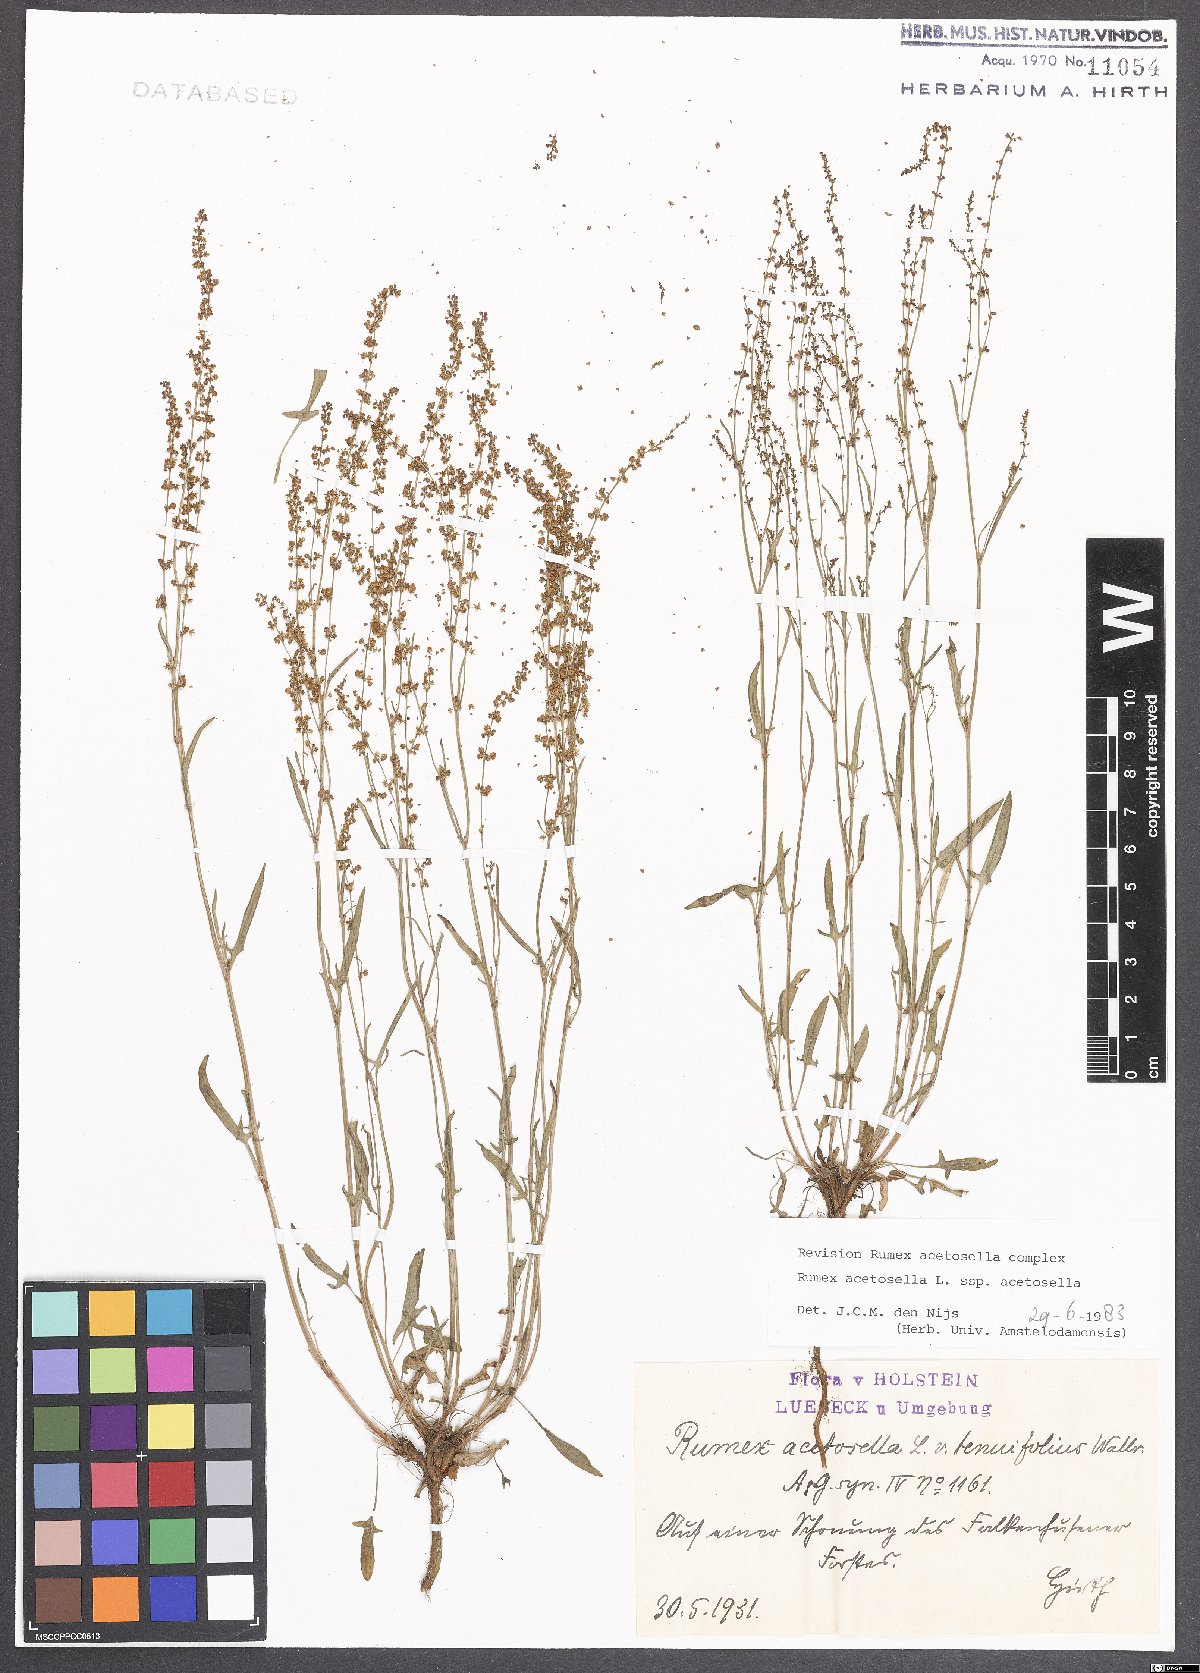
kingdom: Plantae
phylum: Tracheophyta
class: Magnoliopsida
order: Caryophyllales
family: Polygonaceae
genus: Rumex
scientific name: Rumex acetosella
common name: Common sheep sorrel
